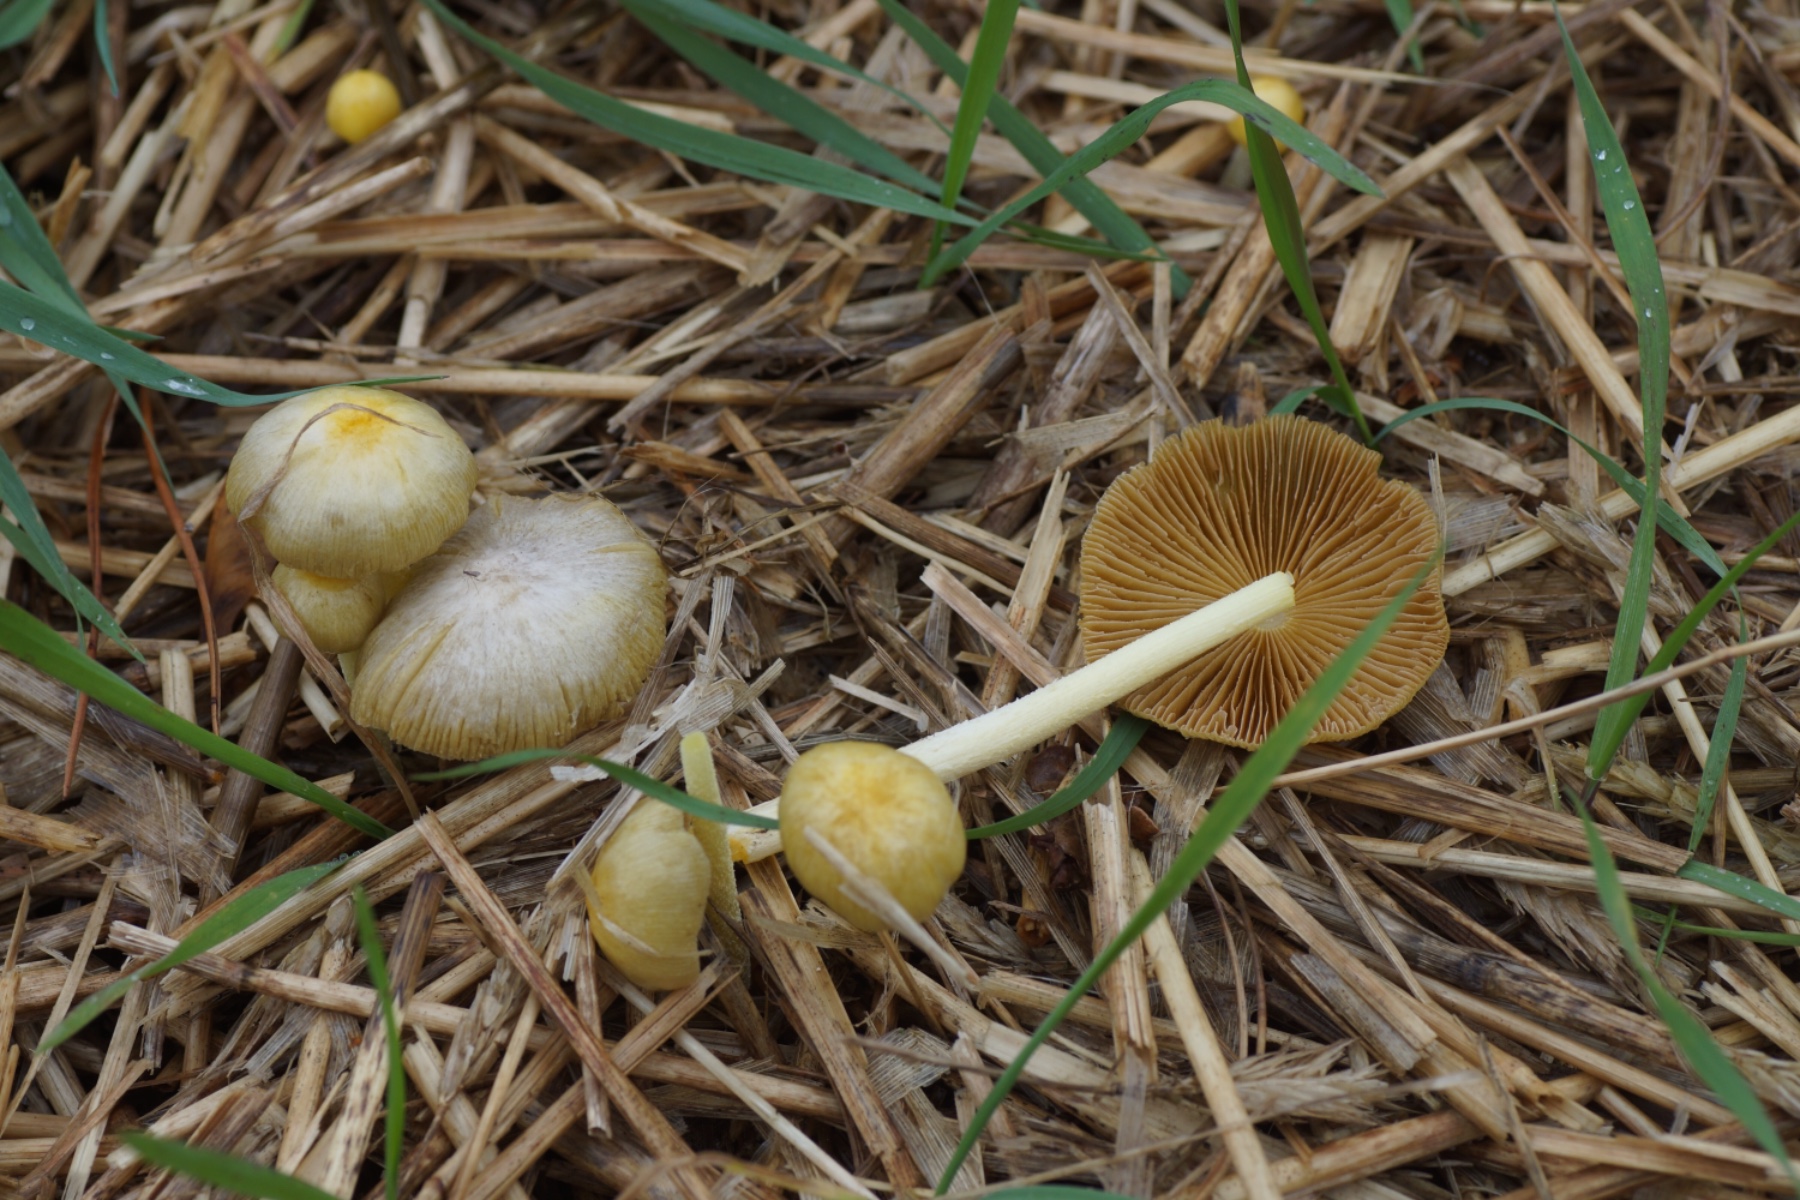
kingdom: Fungi
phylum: Basidiomycota
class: Agaricomycetes
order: Agaricales
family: Bolbitiaceae
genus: Bolbitius
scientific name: Bolbitius titubans
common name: almindelig gulhat
